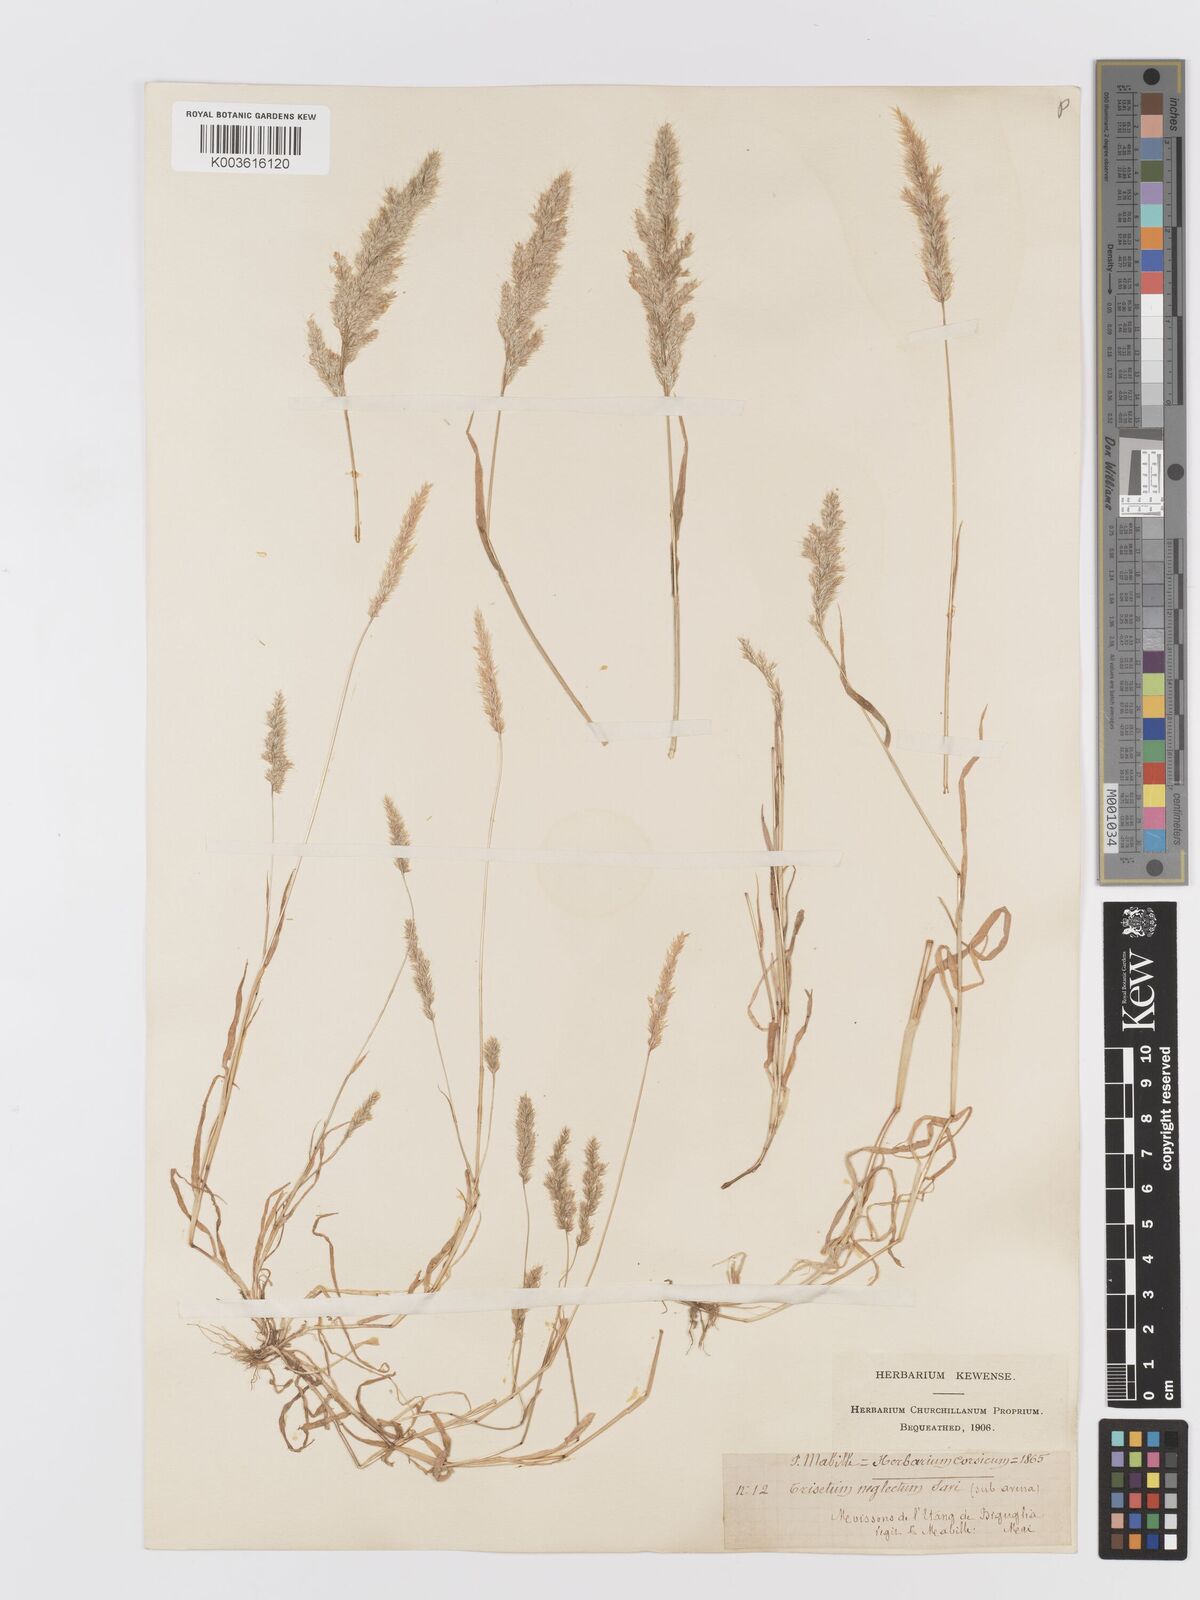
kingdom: Plantae
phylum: Tracheophyta
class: Liliopsida
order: Poales
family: Poaceae
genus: Trisetaria
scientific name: Trisetaria panicea
